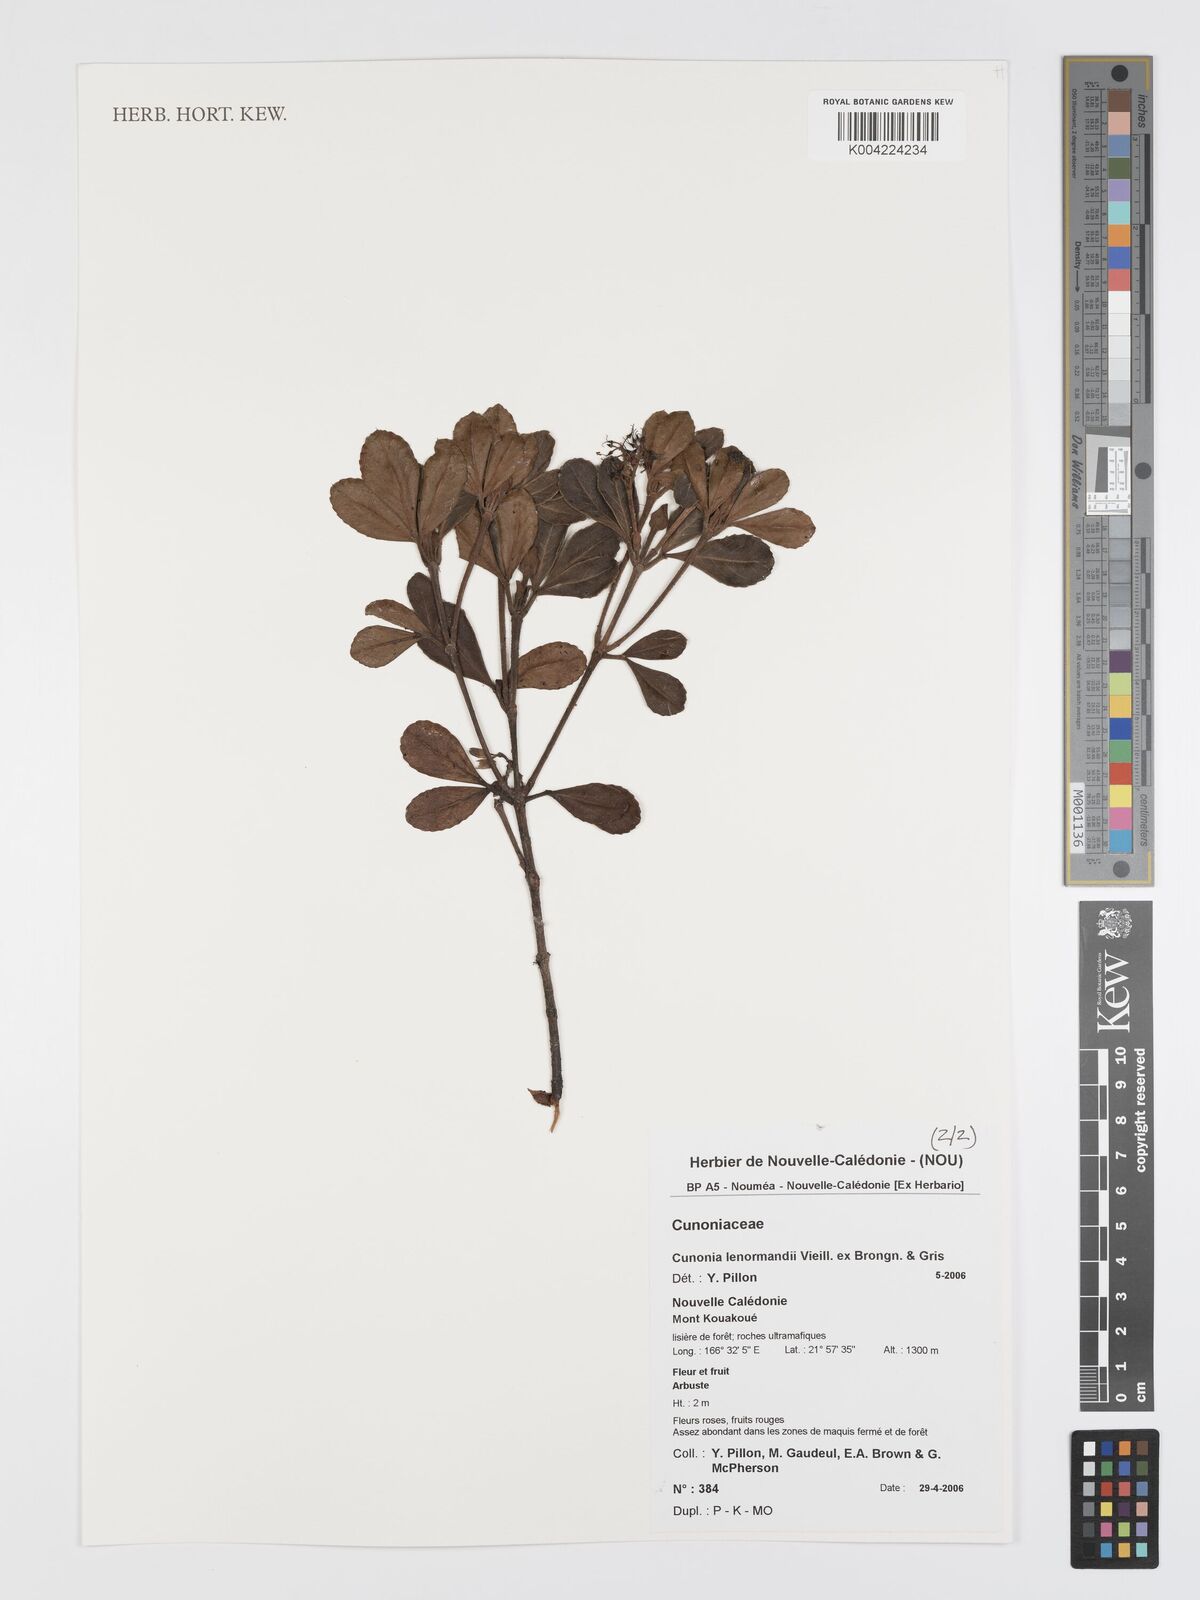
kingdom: Plantae
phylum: Tracheophyta
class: Magnoliopsida
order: Oxalidales
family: Cunoniaceae
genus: Cunonia
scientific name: Cunonia lenormandii
